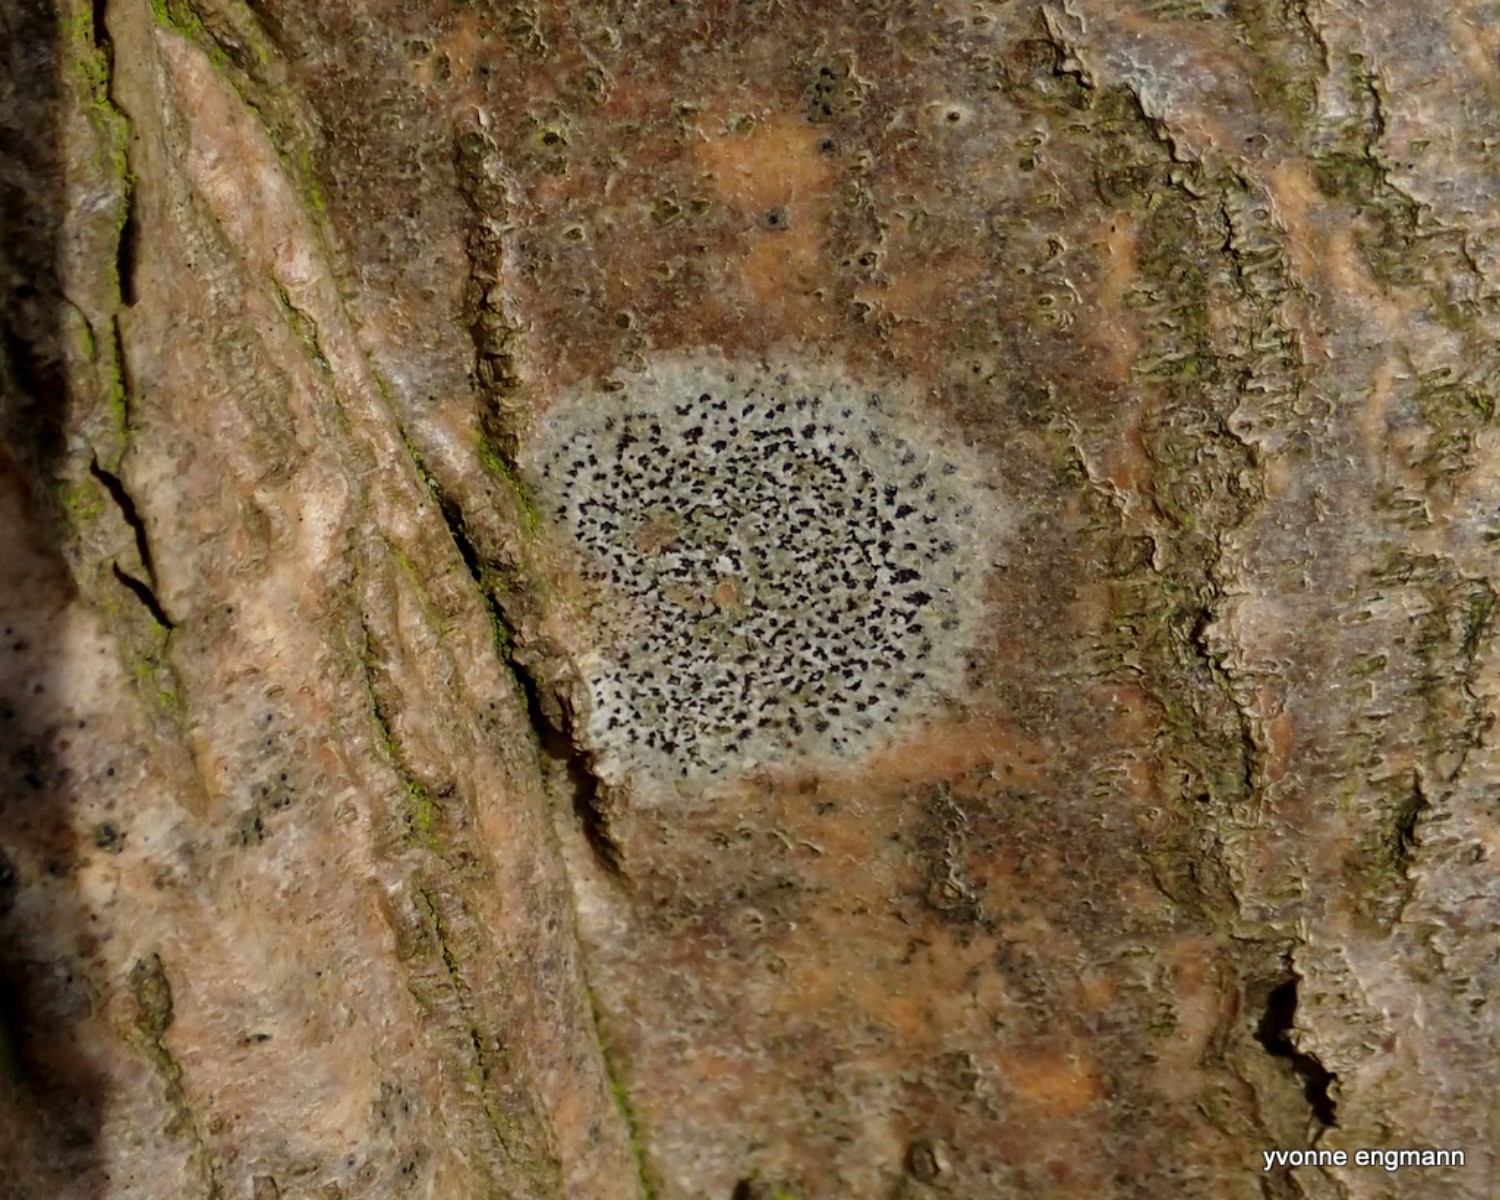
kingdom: Fungi
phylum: Ascomycota
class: Arthoniomycetes
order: Arthoniales
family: Arthoniaceae
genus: Arthonia
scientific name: Arthonia radiata
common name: stjerne-pletlav
